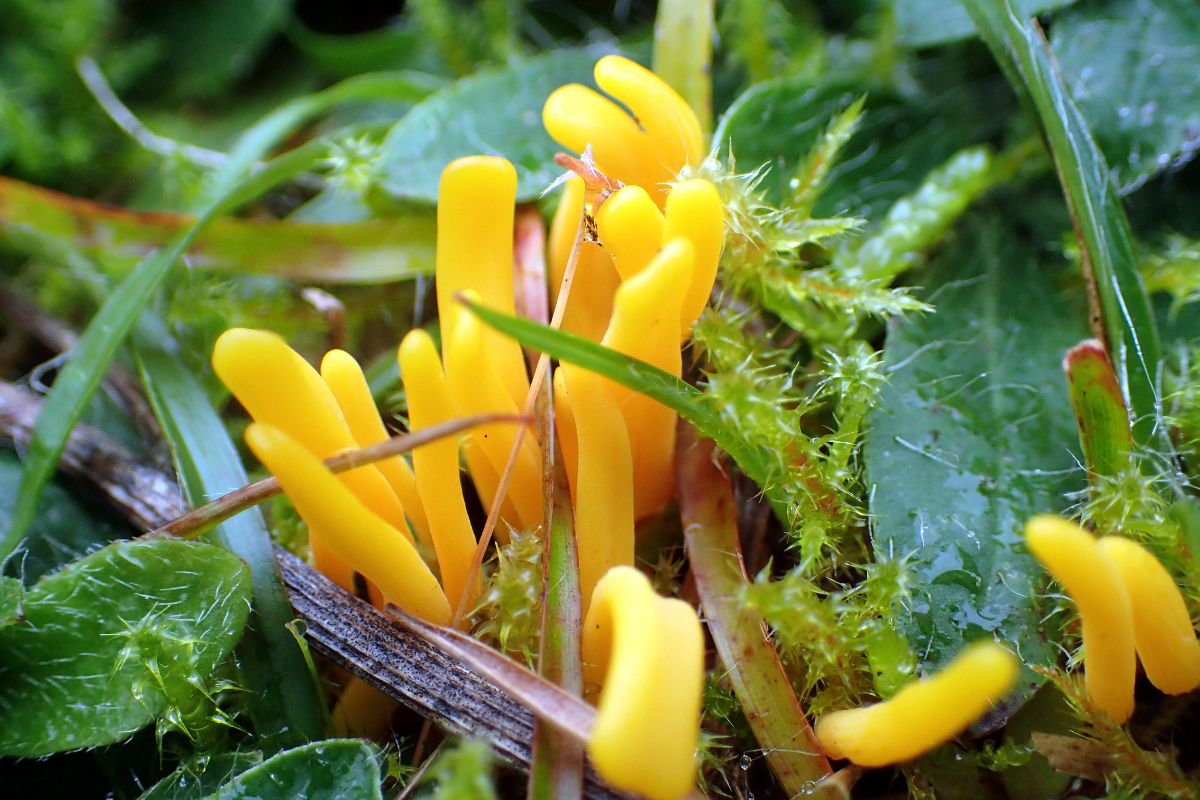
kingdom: Fungi
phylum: Basidiomycota
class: Agaricomycetes
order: Agaricales
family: Clavariaceae
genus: Clavulinopsis
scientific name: Clavulinopsis
